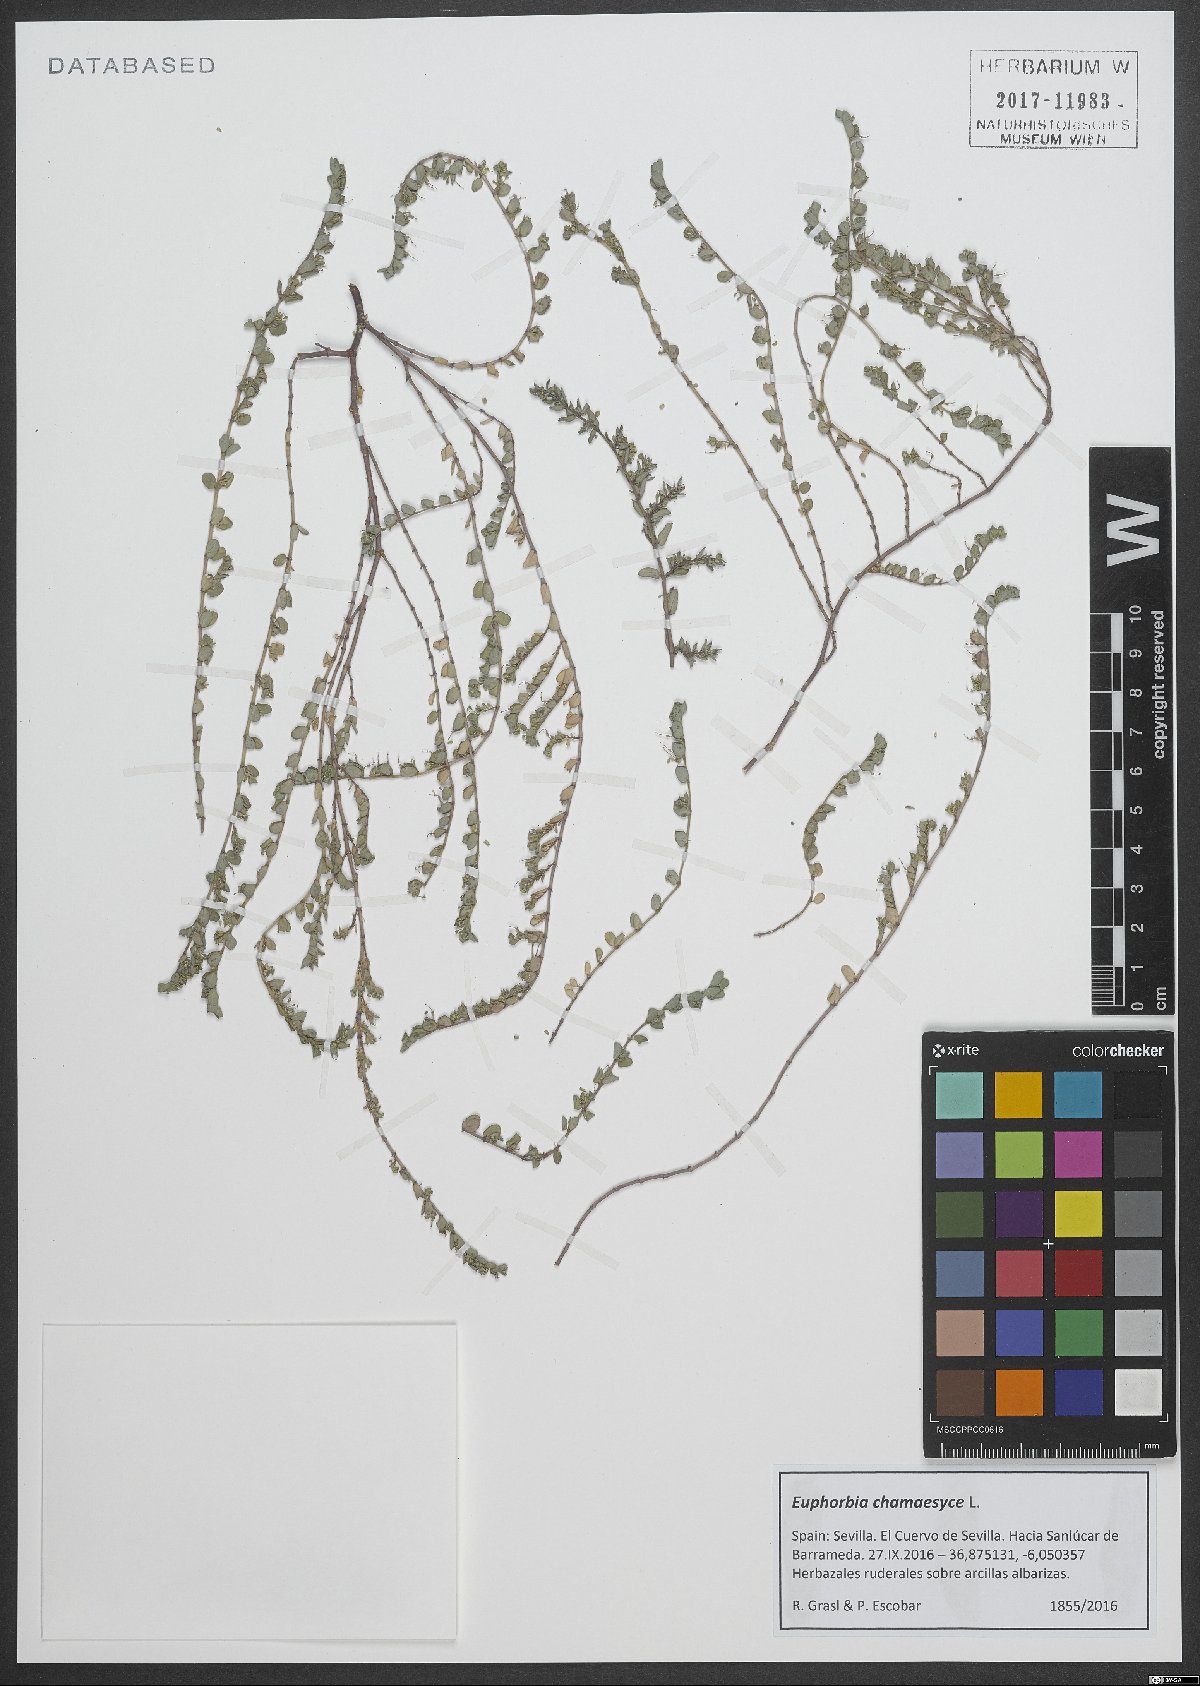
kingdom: Plantae
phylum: Tracheophyta
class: Magnoliopsida
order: Malpighiales
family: Euphorbiaceae
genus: Euphorbia
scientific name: Euphorbia chamaesyce
